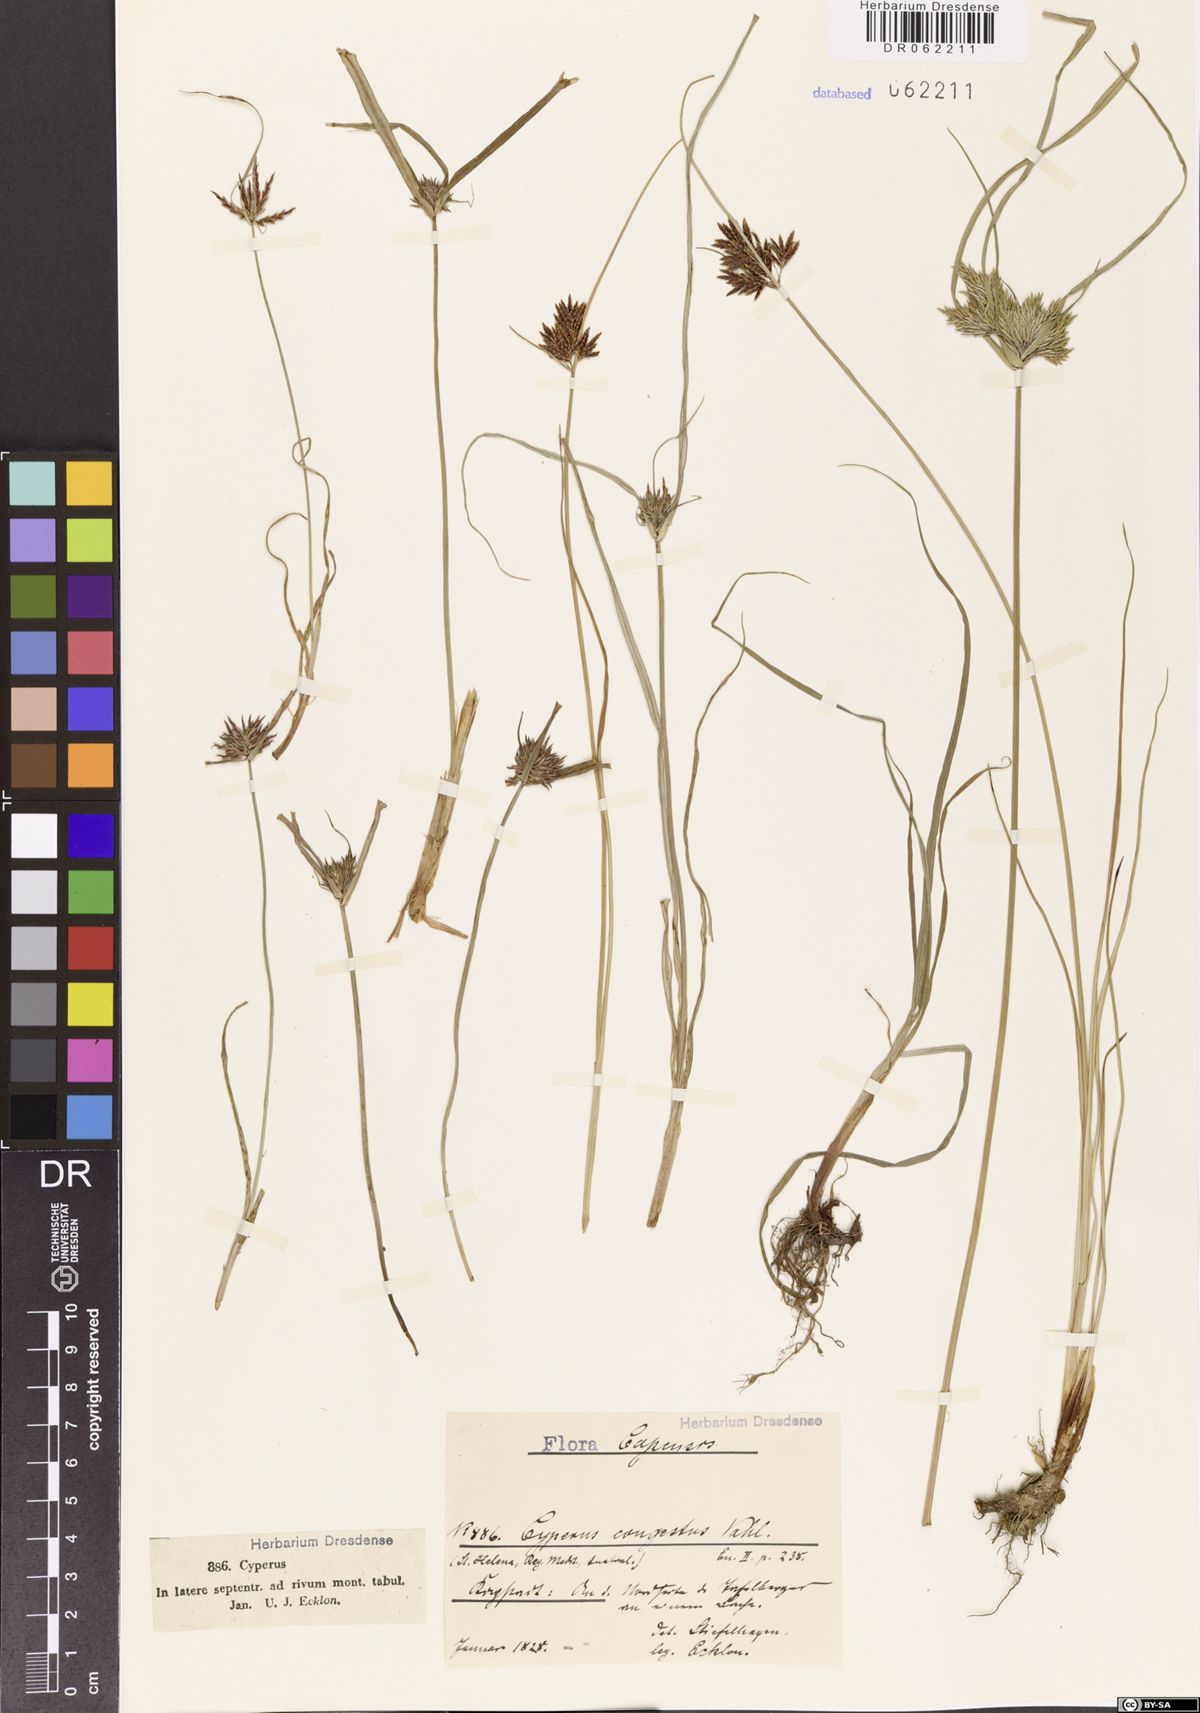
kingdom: Plantae
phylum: Tracheophyta
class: Liliopsida
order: Poales
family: Cyperaceae
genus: Cyperus
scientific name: Cyperus congestus
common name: Dense flat sedge
